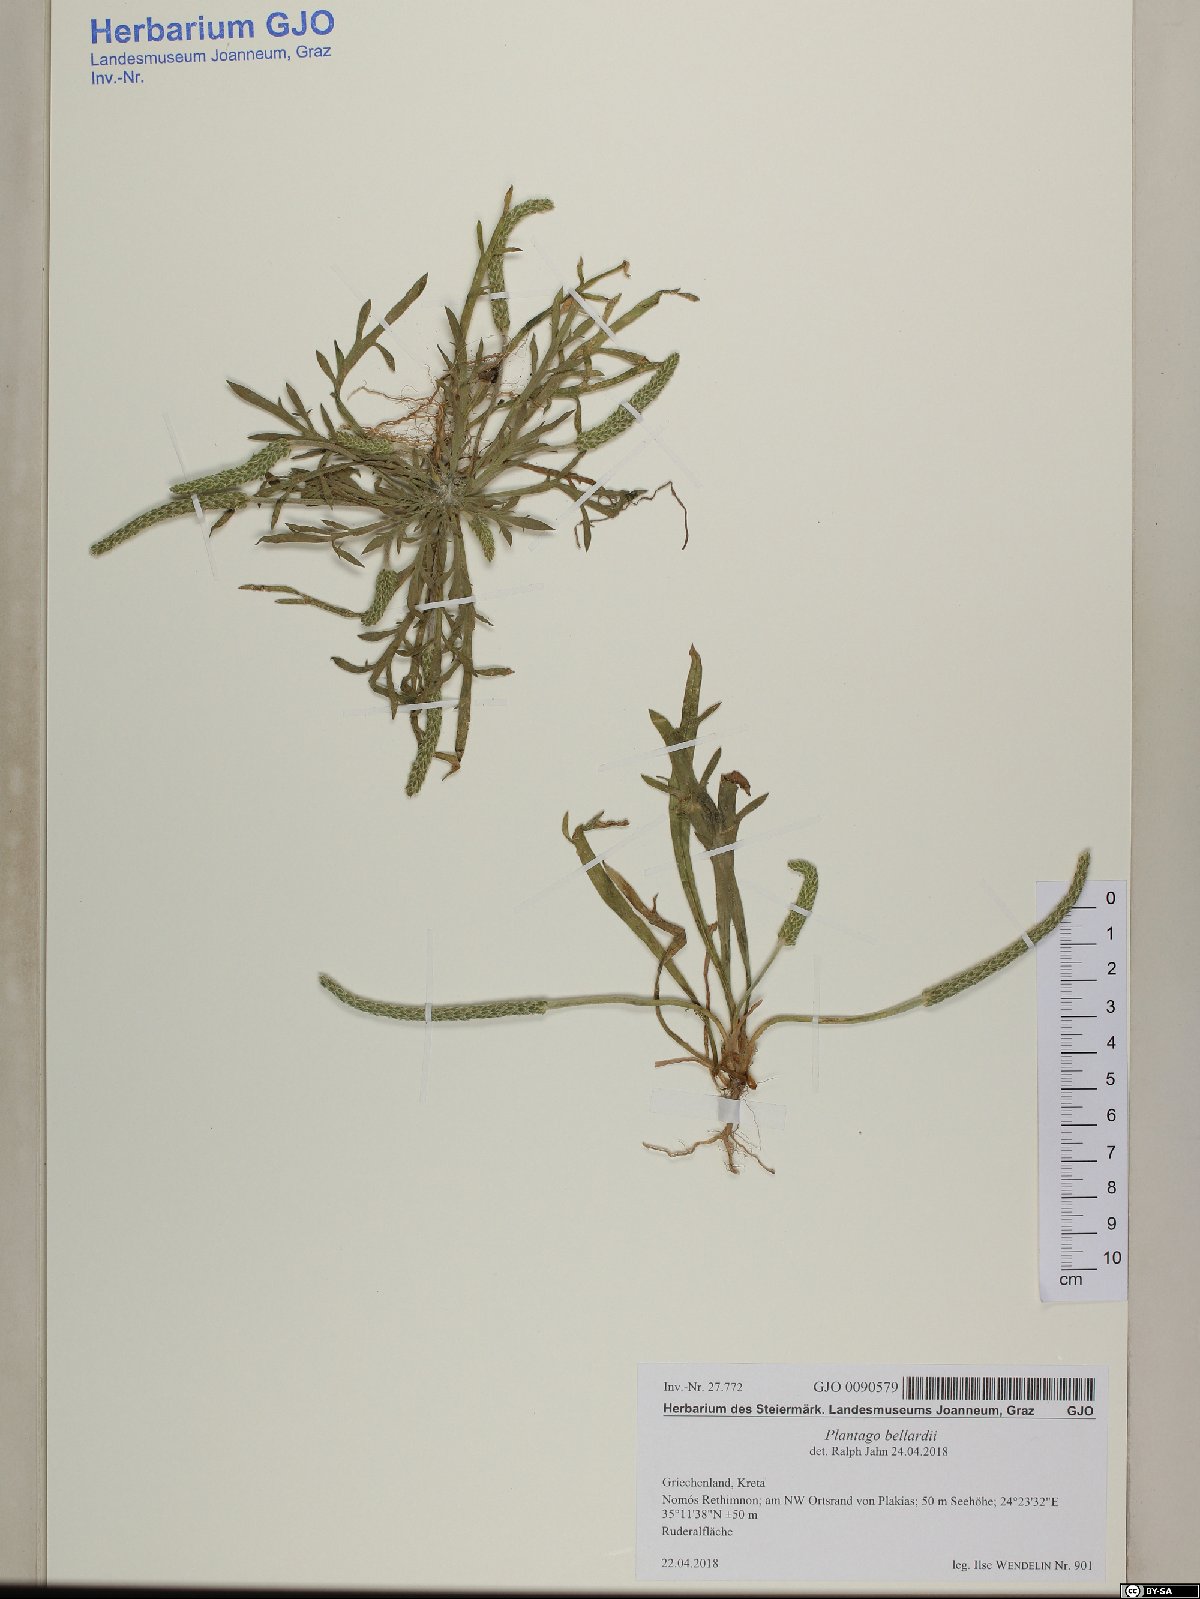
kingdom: Plantae
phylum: Tracheophyta
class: Magnoliopsida
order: Lamiales
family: Plantaginaceae
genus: Plantago
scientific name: Plantago bellardii
